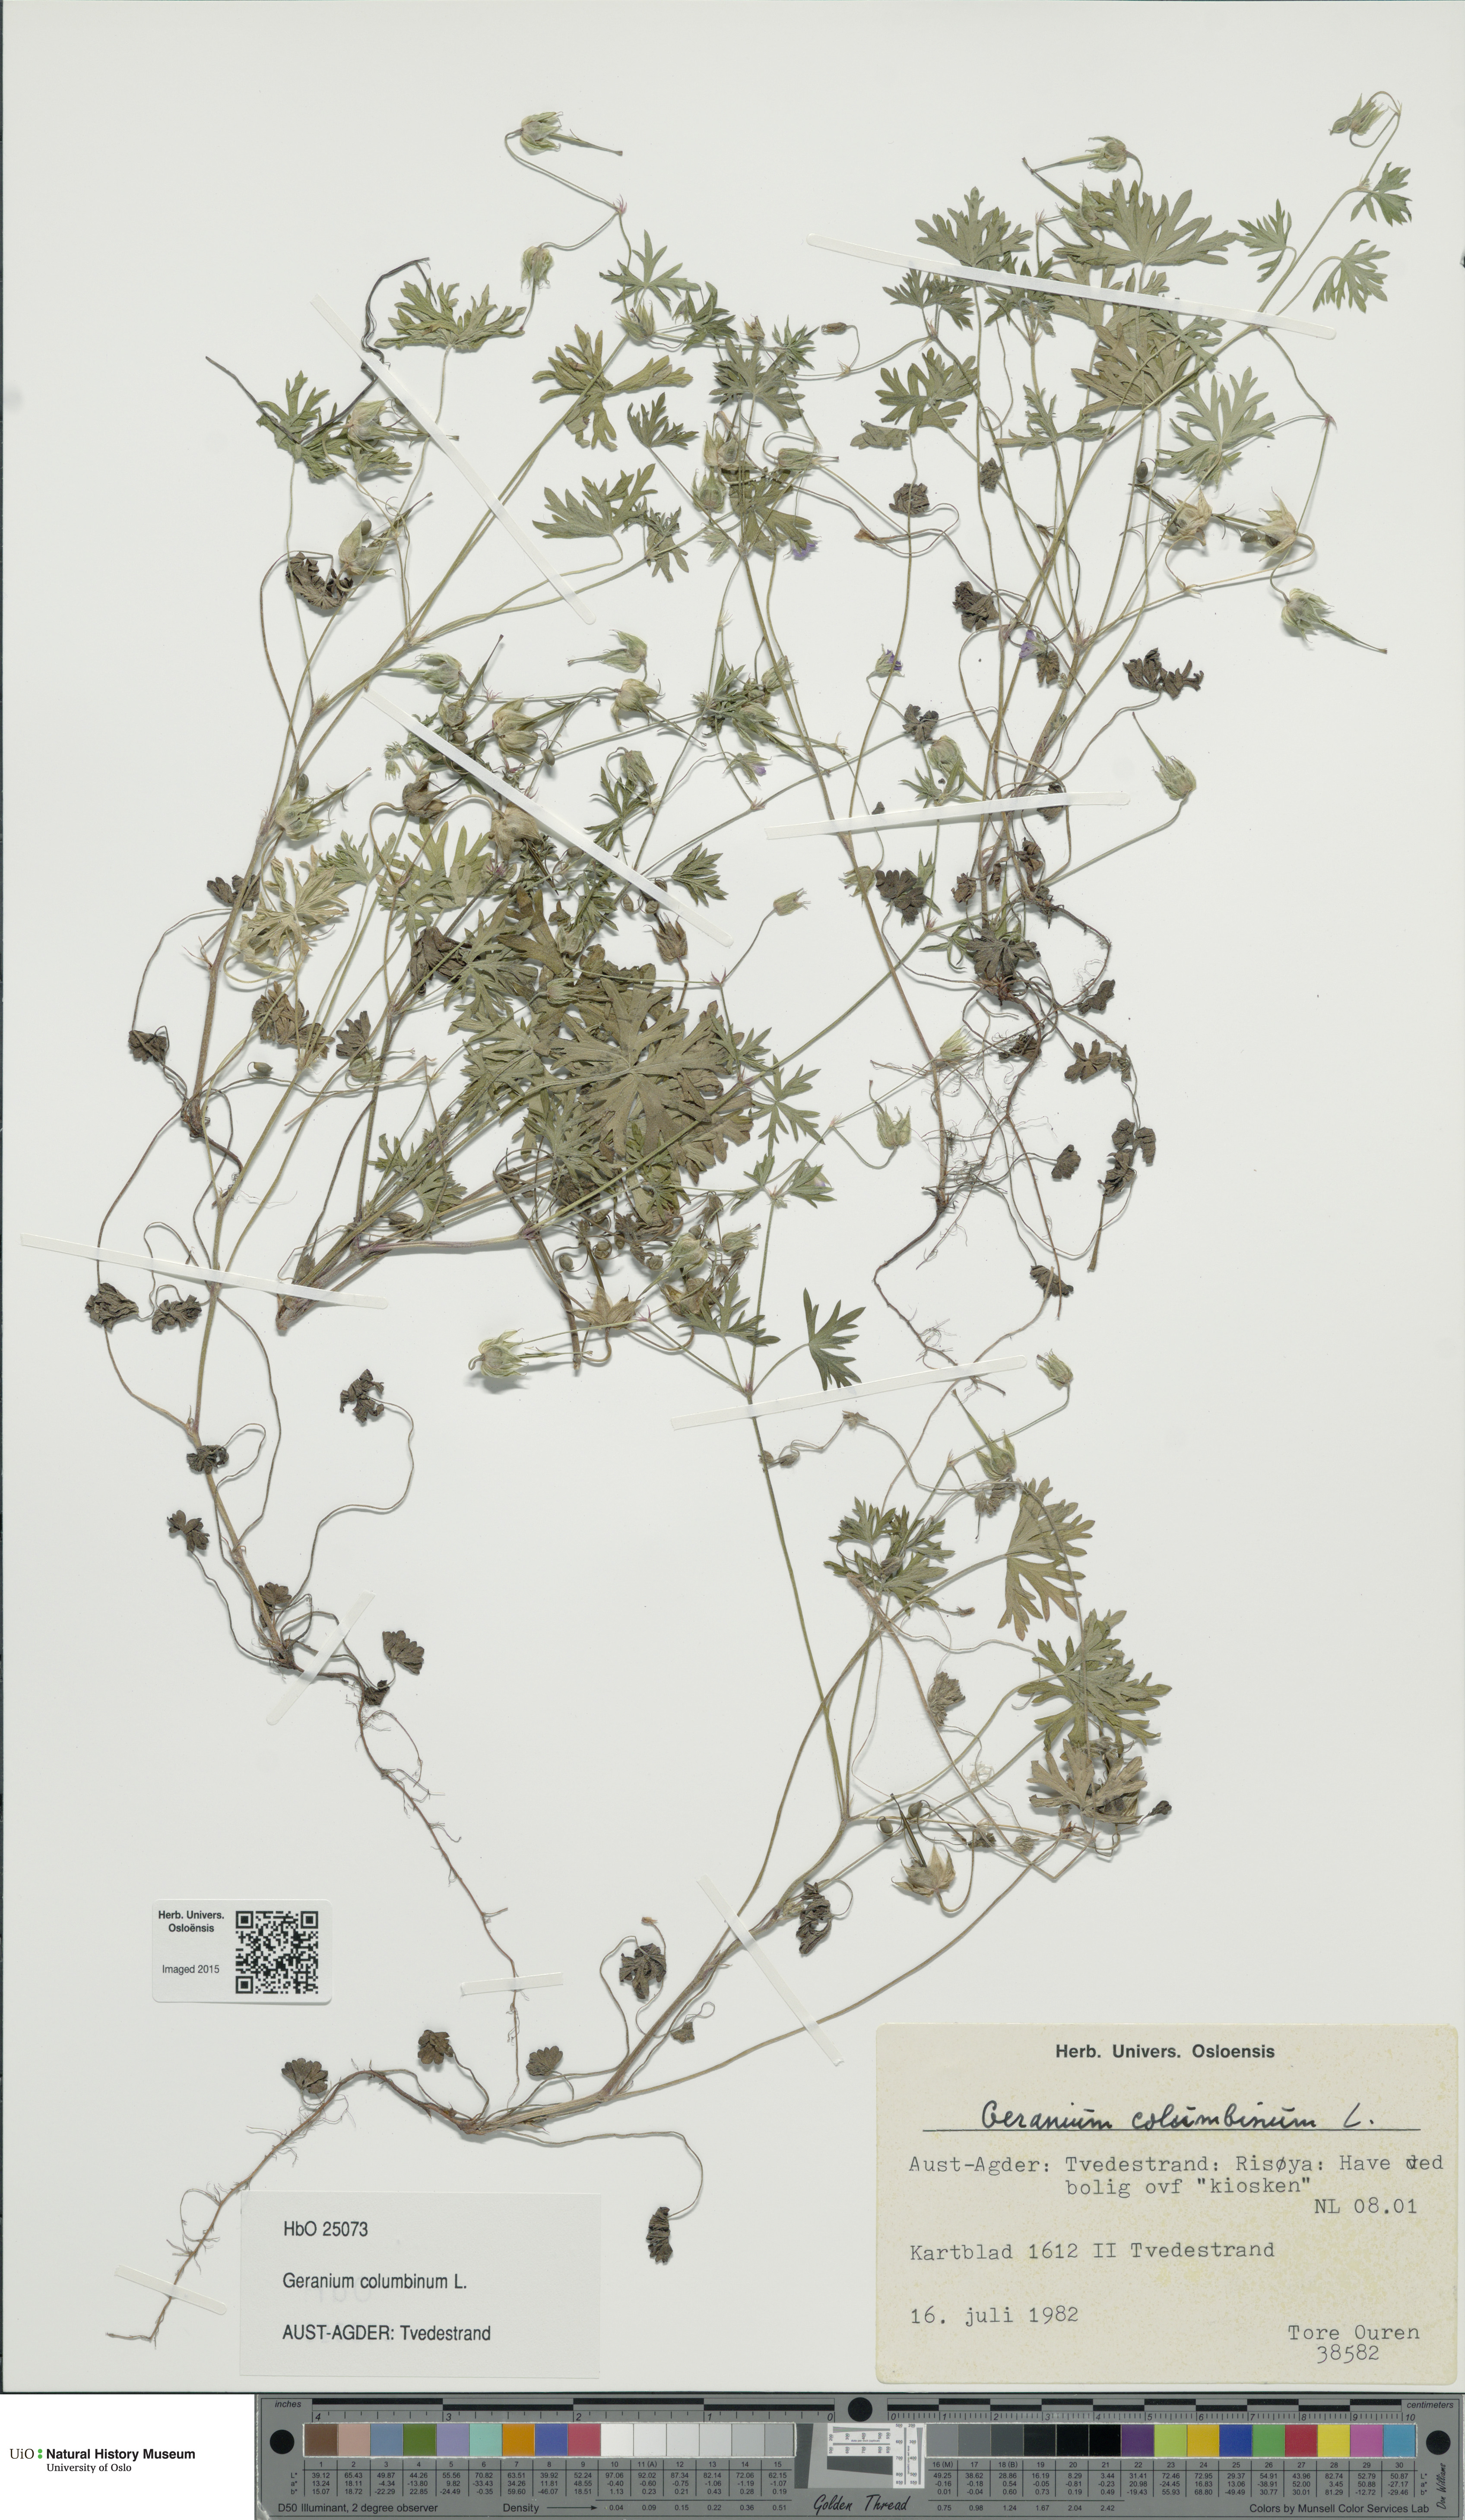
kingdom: Plantae
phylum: Tracheophyta
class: Magnoliopsida
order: Geraniales
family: Geraniaceae
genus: Geranium
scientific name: Geranium columbinum
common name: Long-stalked crane's-bill
